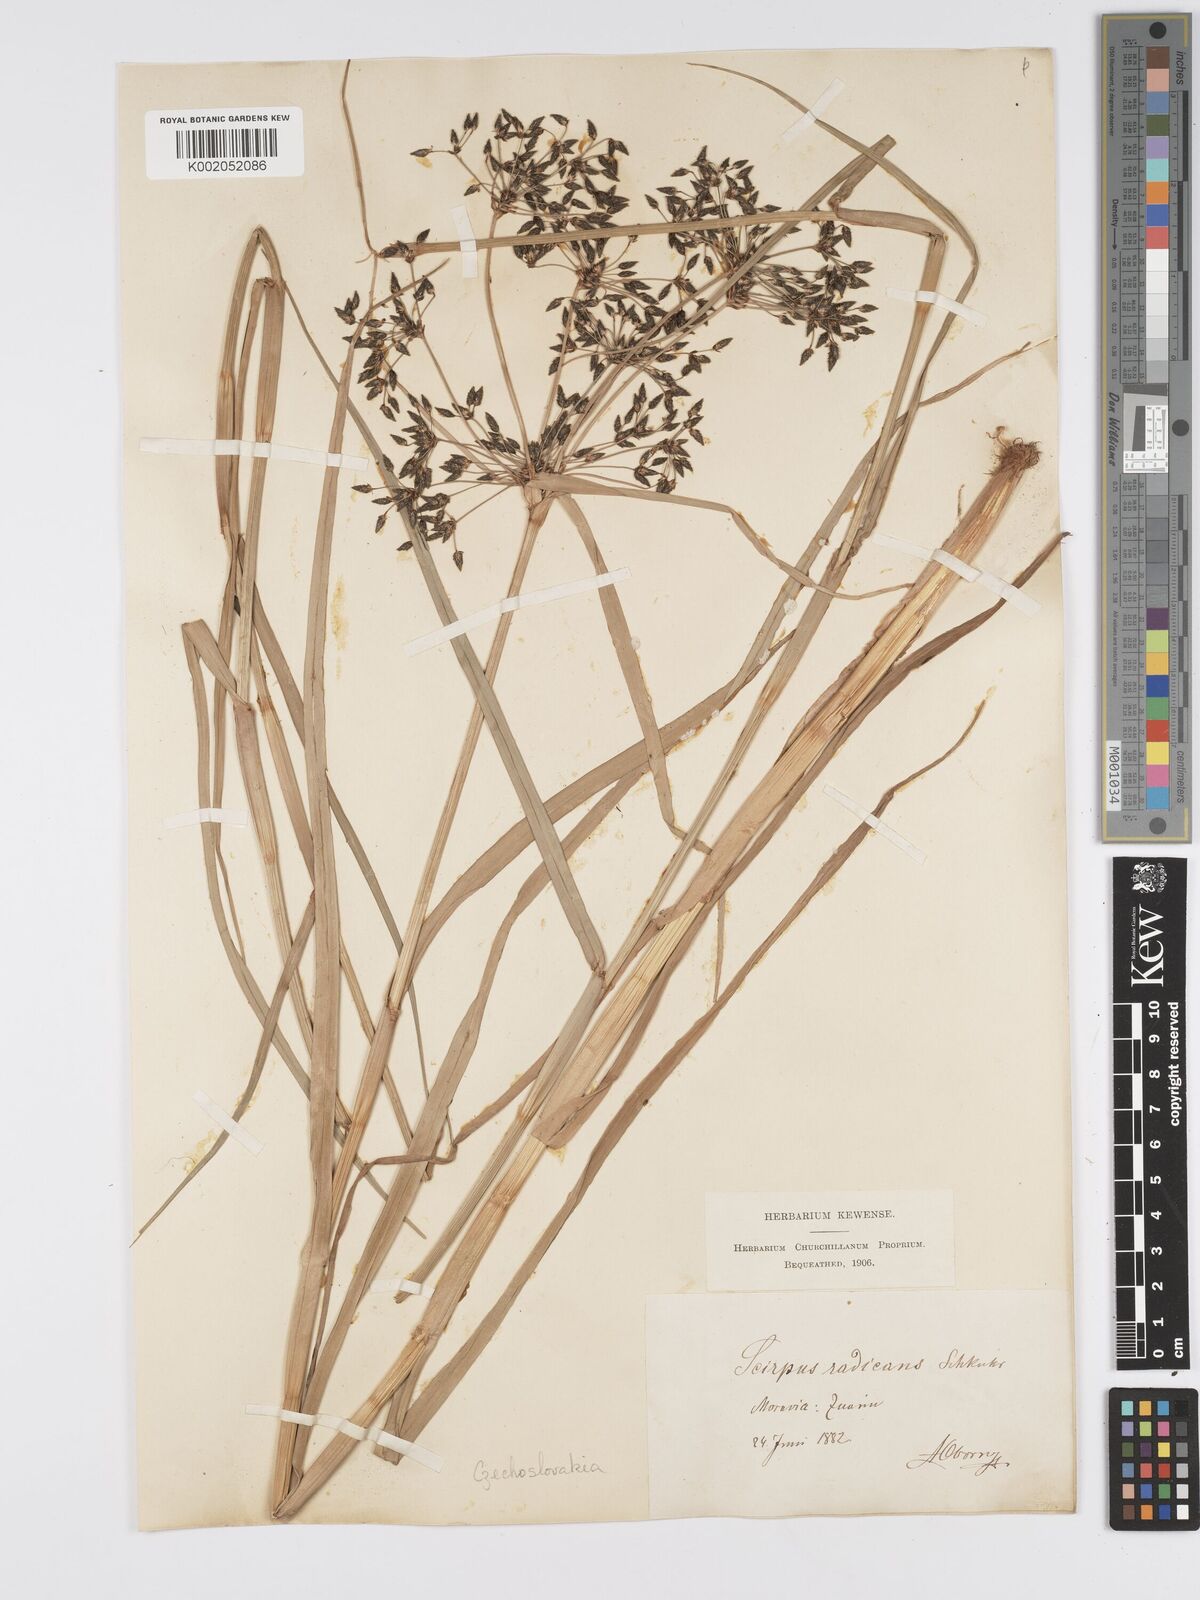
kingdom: Plantae
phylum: Tracheophyta
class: Liliopsida
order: Poales
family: Cyperaceae
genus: Scirpus
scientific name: Scirpus radicans
